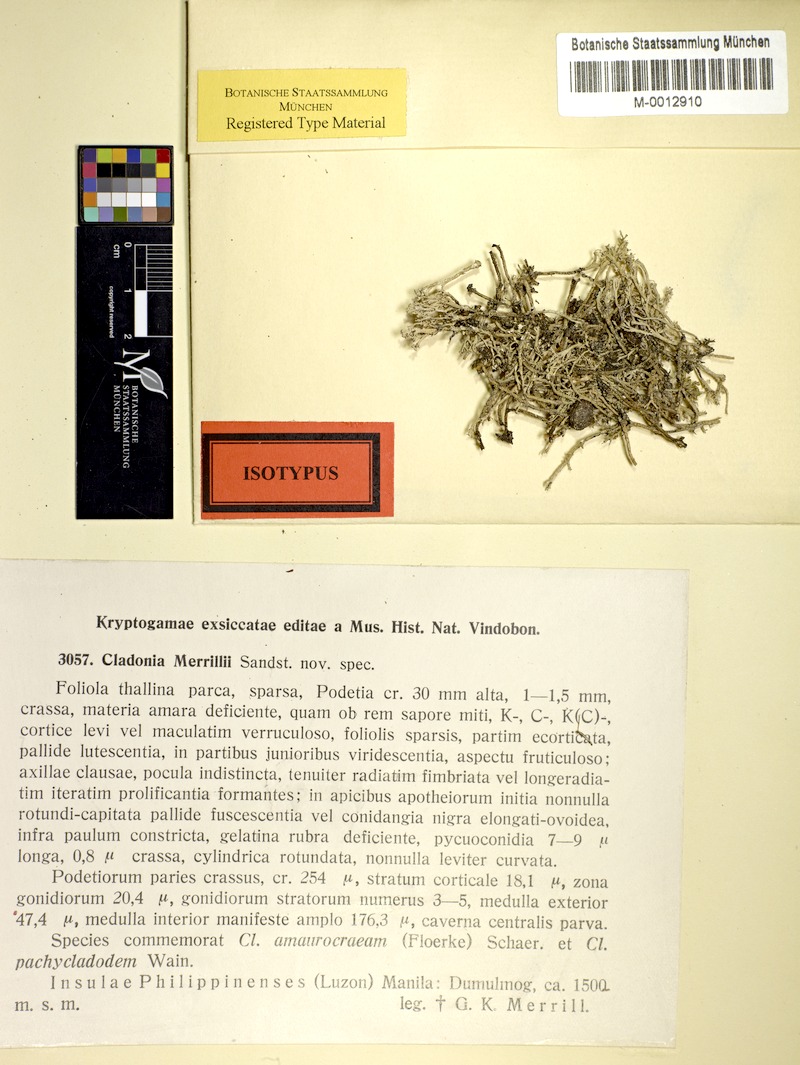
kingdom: Fungi
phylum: Ascomycota
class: Lecanoromycetes
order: Lecanorales
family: Cladoniaceae
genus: Cladonia
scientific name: Cladonia fruticulosa
